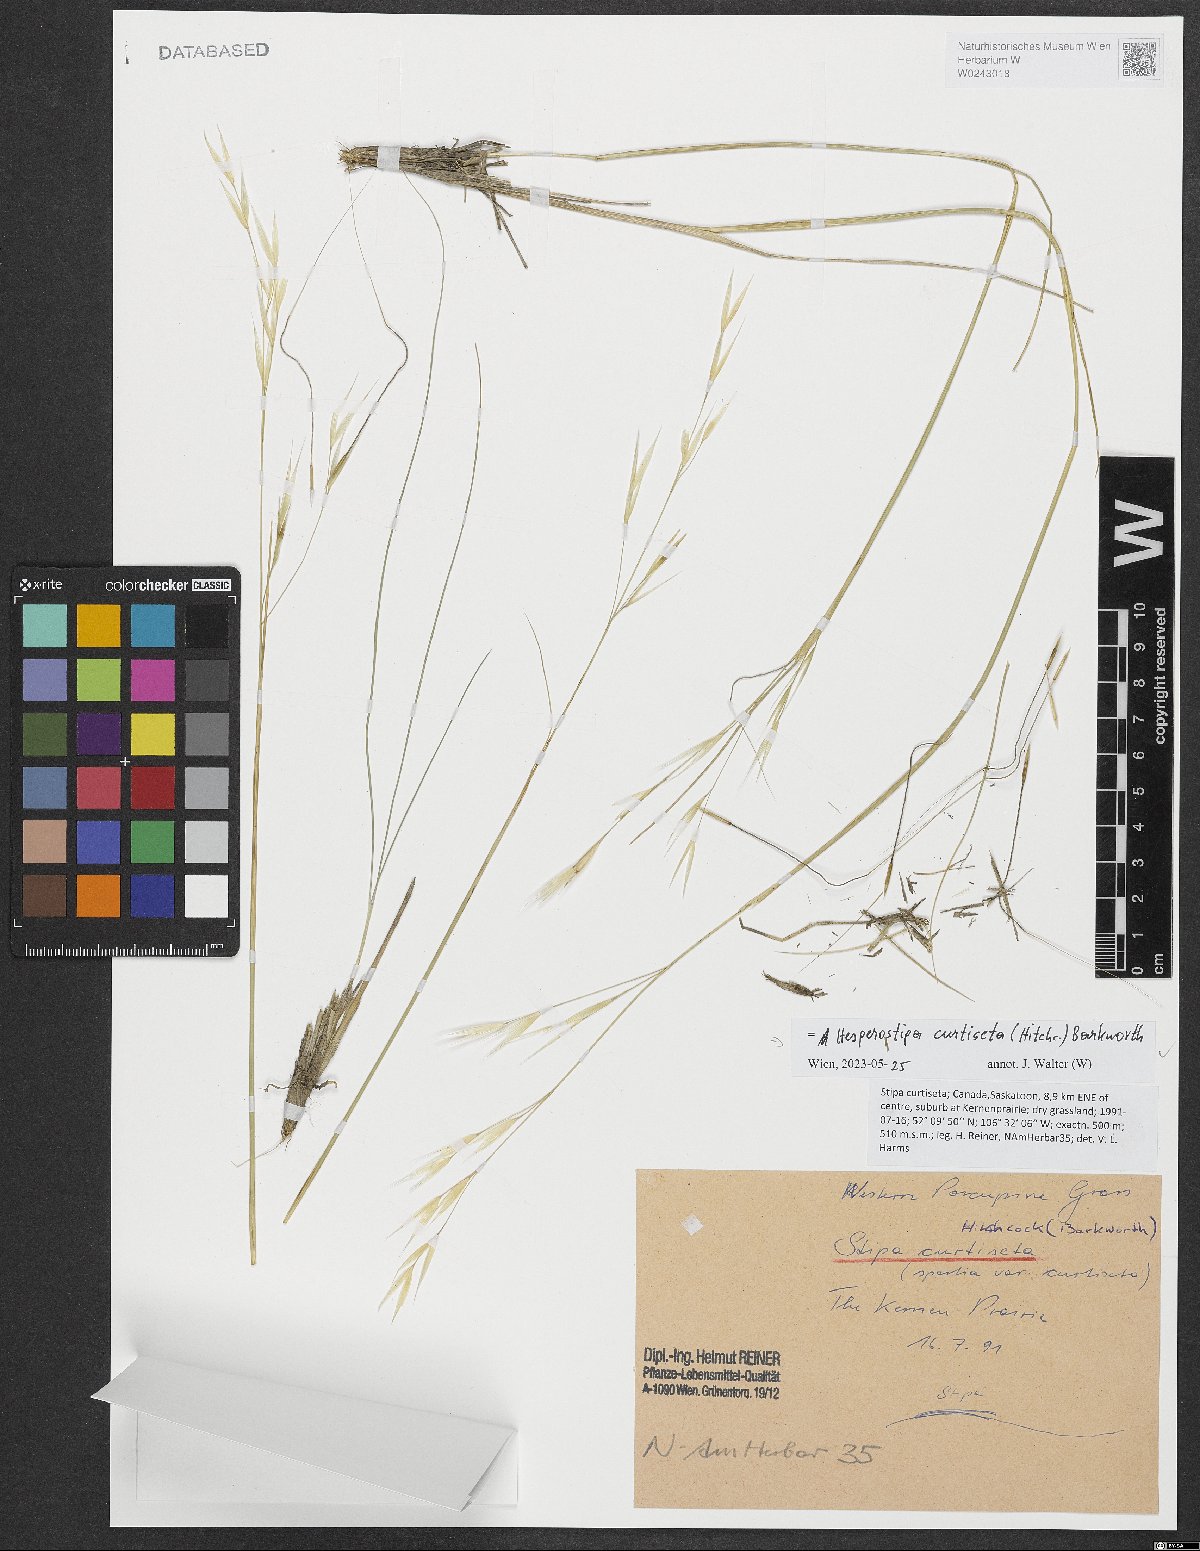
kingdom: Plantae
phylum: Tracheophyta
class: Liliopsida
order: Poales
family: Poaceae
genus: Hesperostipa
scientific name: Hesperostipa curtiseta
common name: Canada needle-and-thread grass
